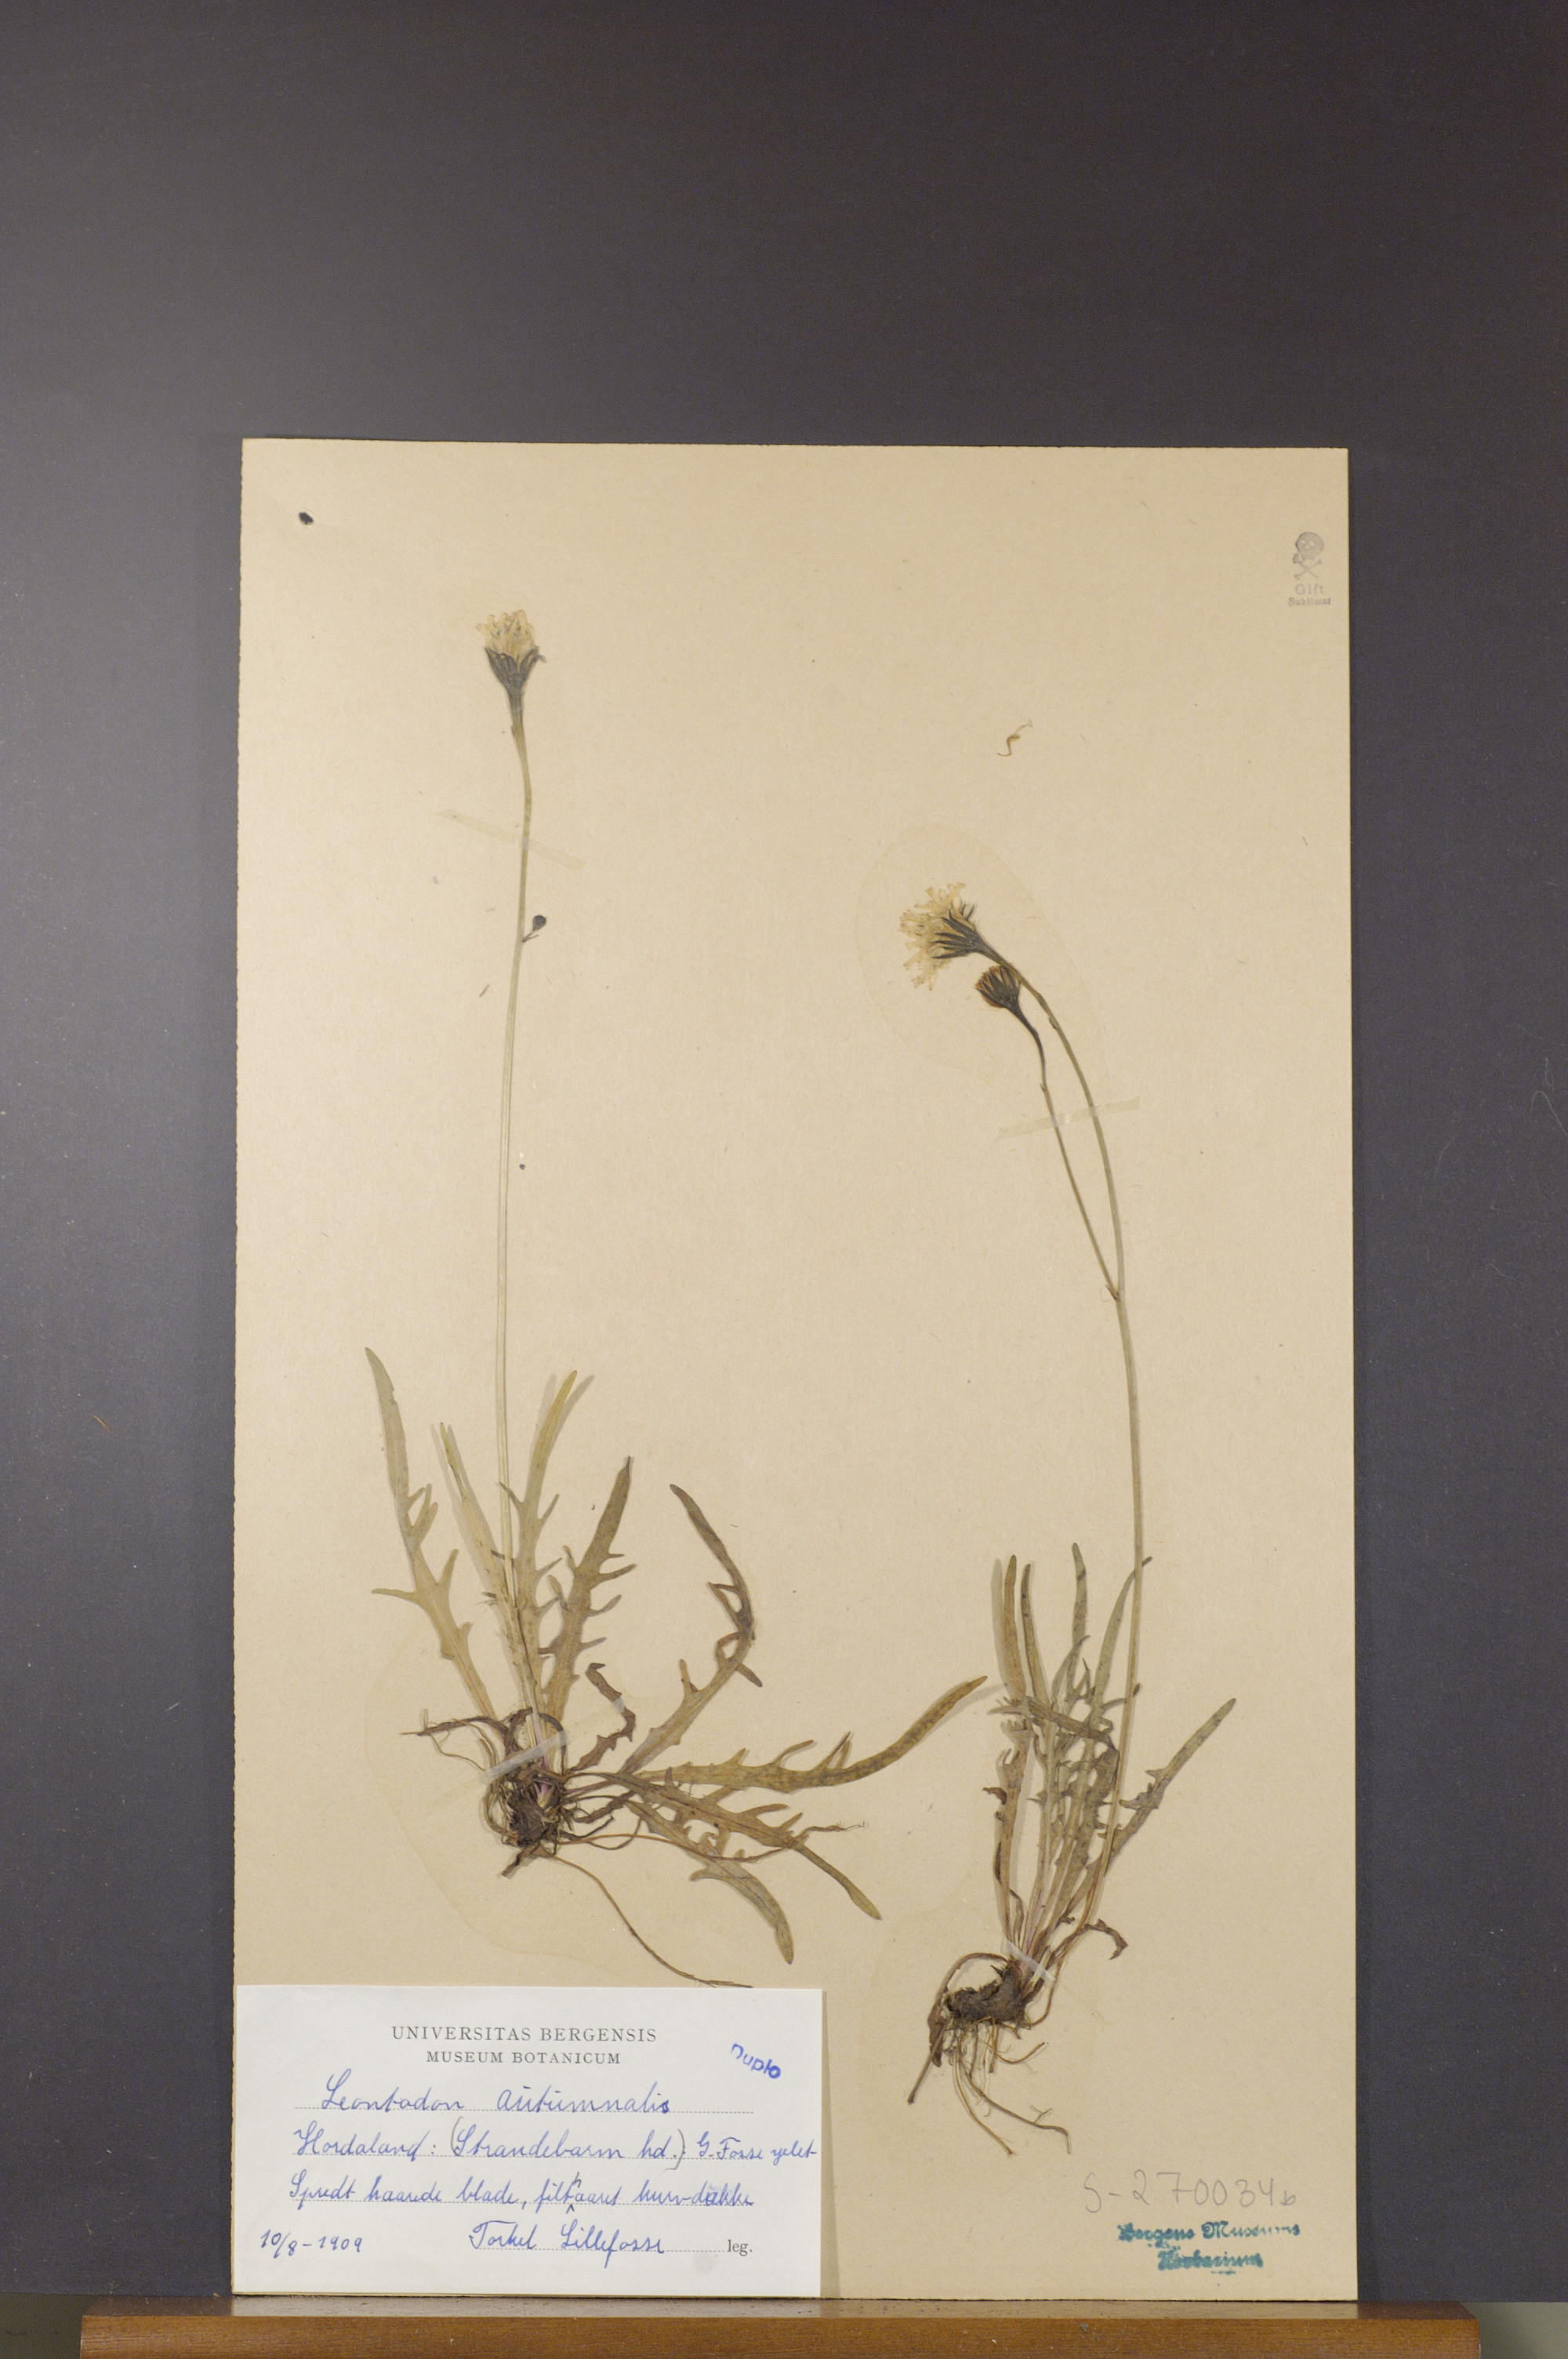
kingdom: Plantae
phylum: Tracheophyta
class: Magnoliopsida
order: Asterales
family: Asteraceae
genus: Scorzoneroides
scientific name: Scorzoneroides autumnalis
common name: Autumn hawkbit
